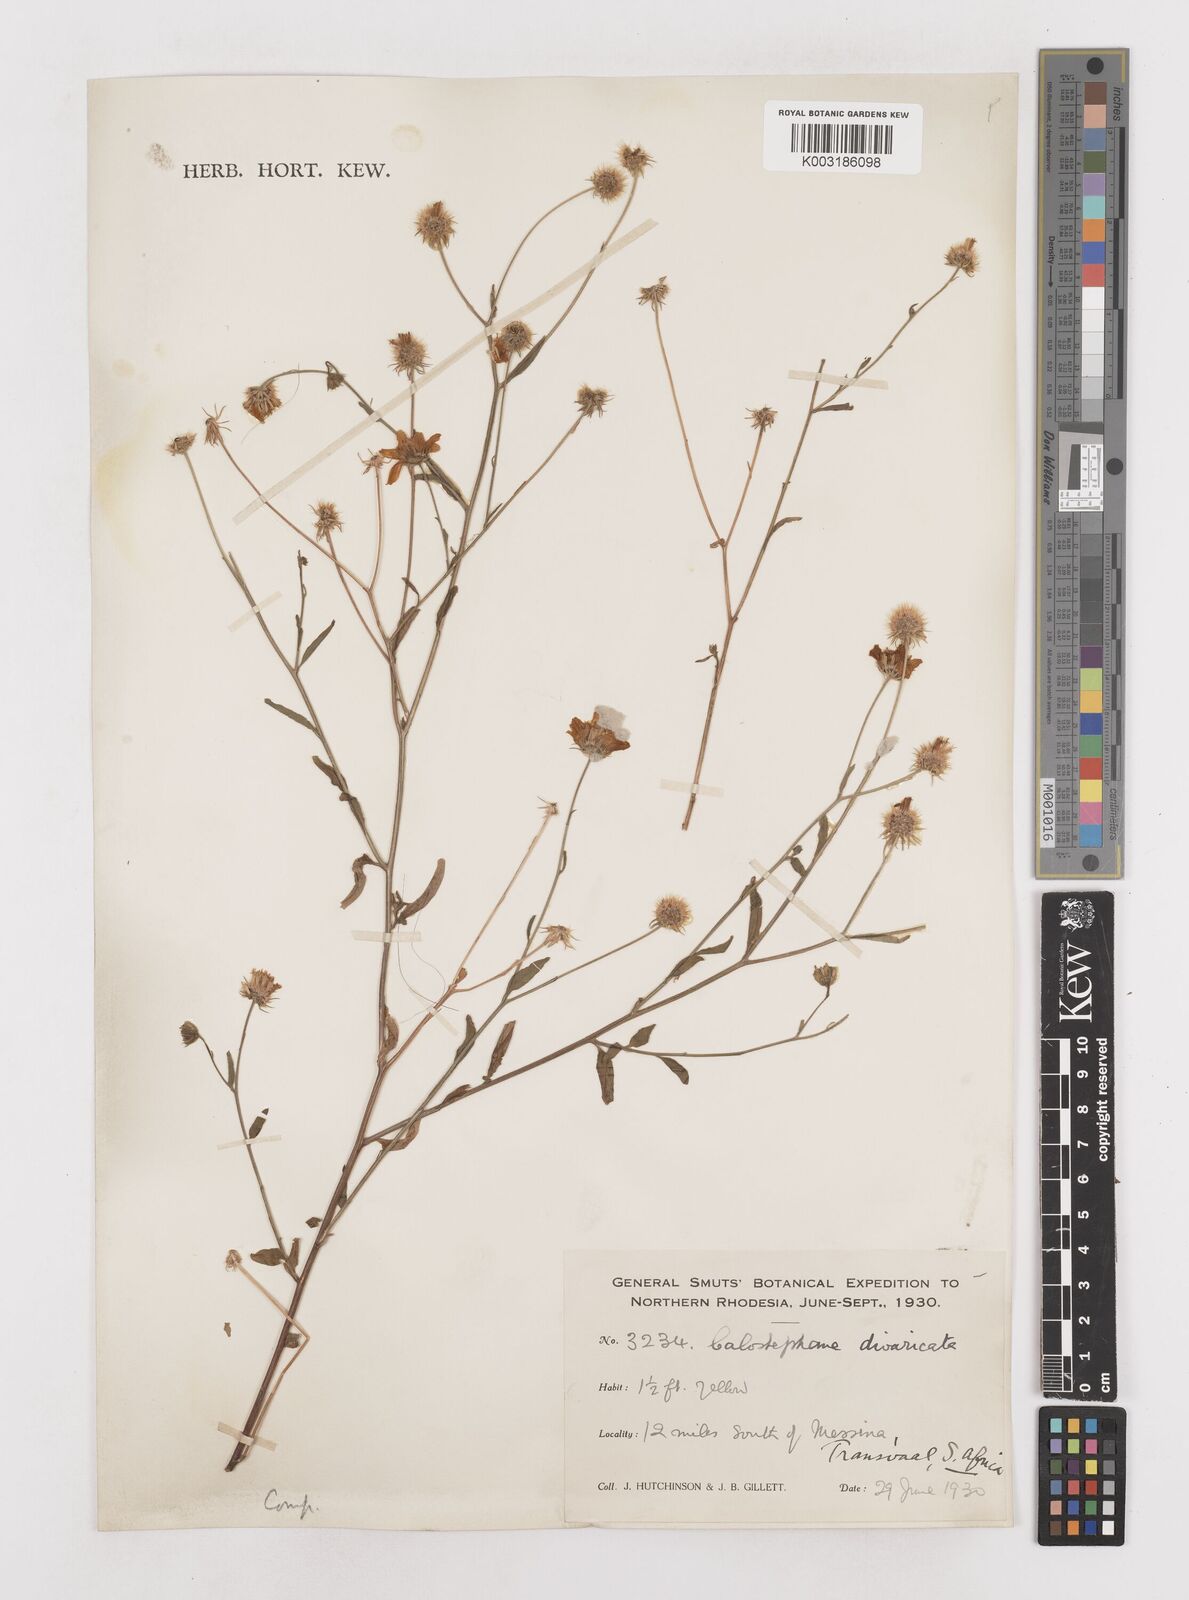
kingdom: Plantae
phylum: Tracheophyta
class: Magnoliopsida
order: Asterales
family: Asteraceae
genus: Calostephane
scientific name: Calostephane divaricata
